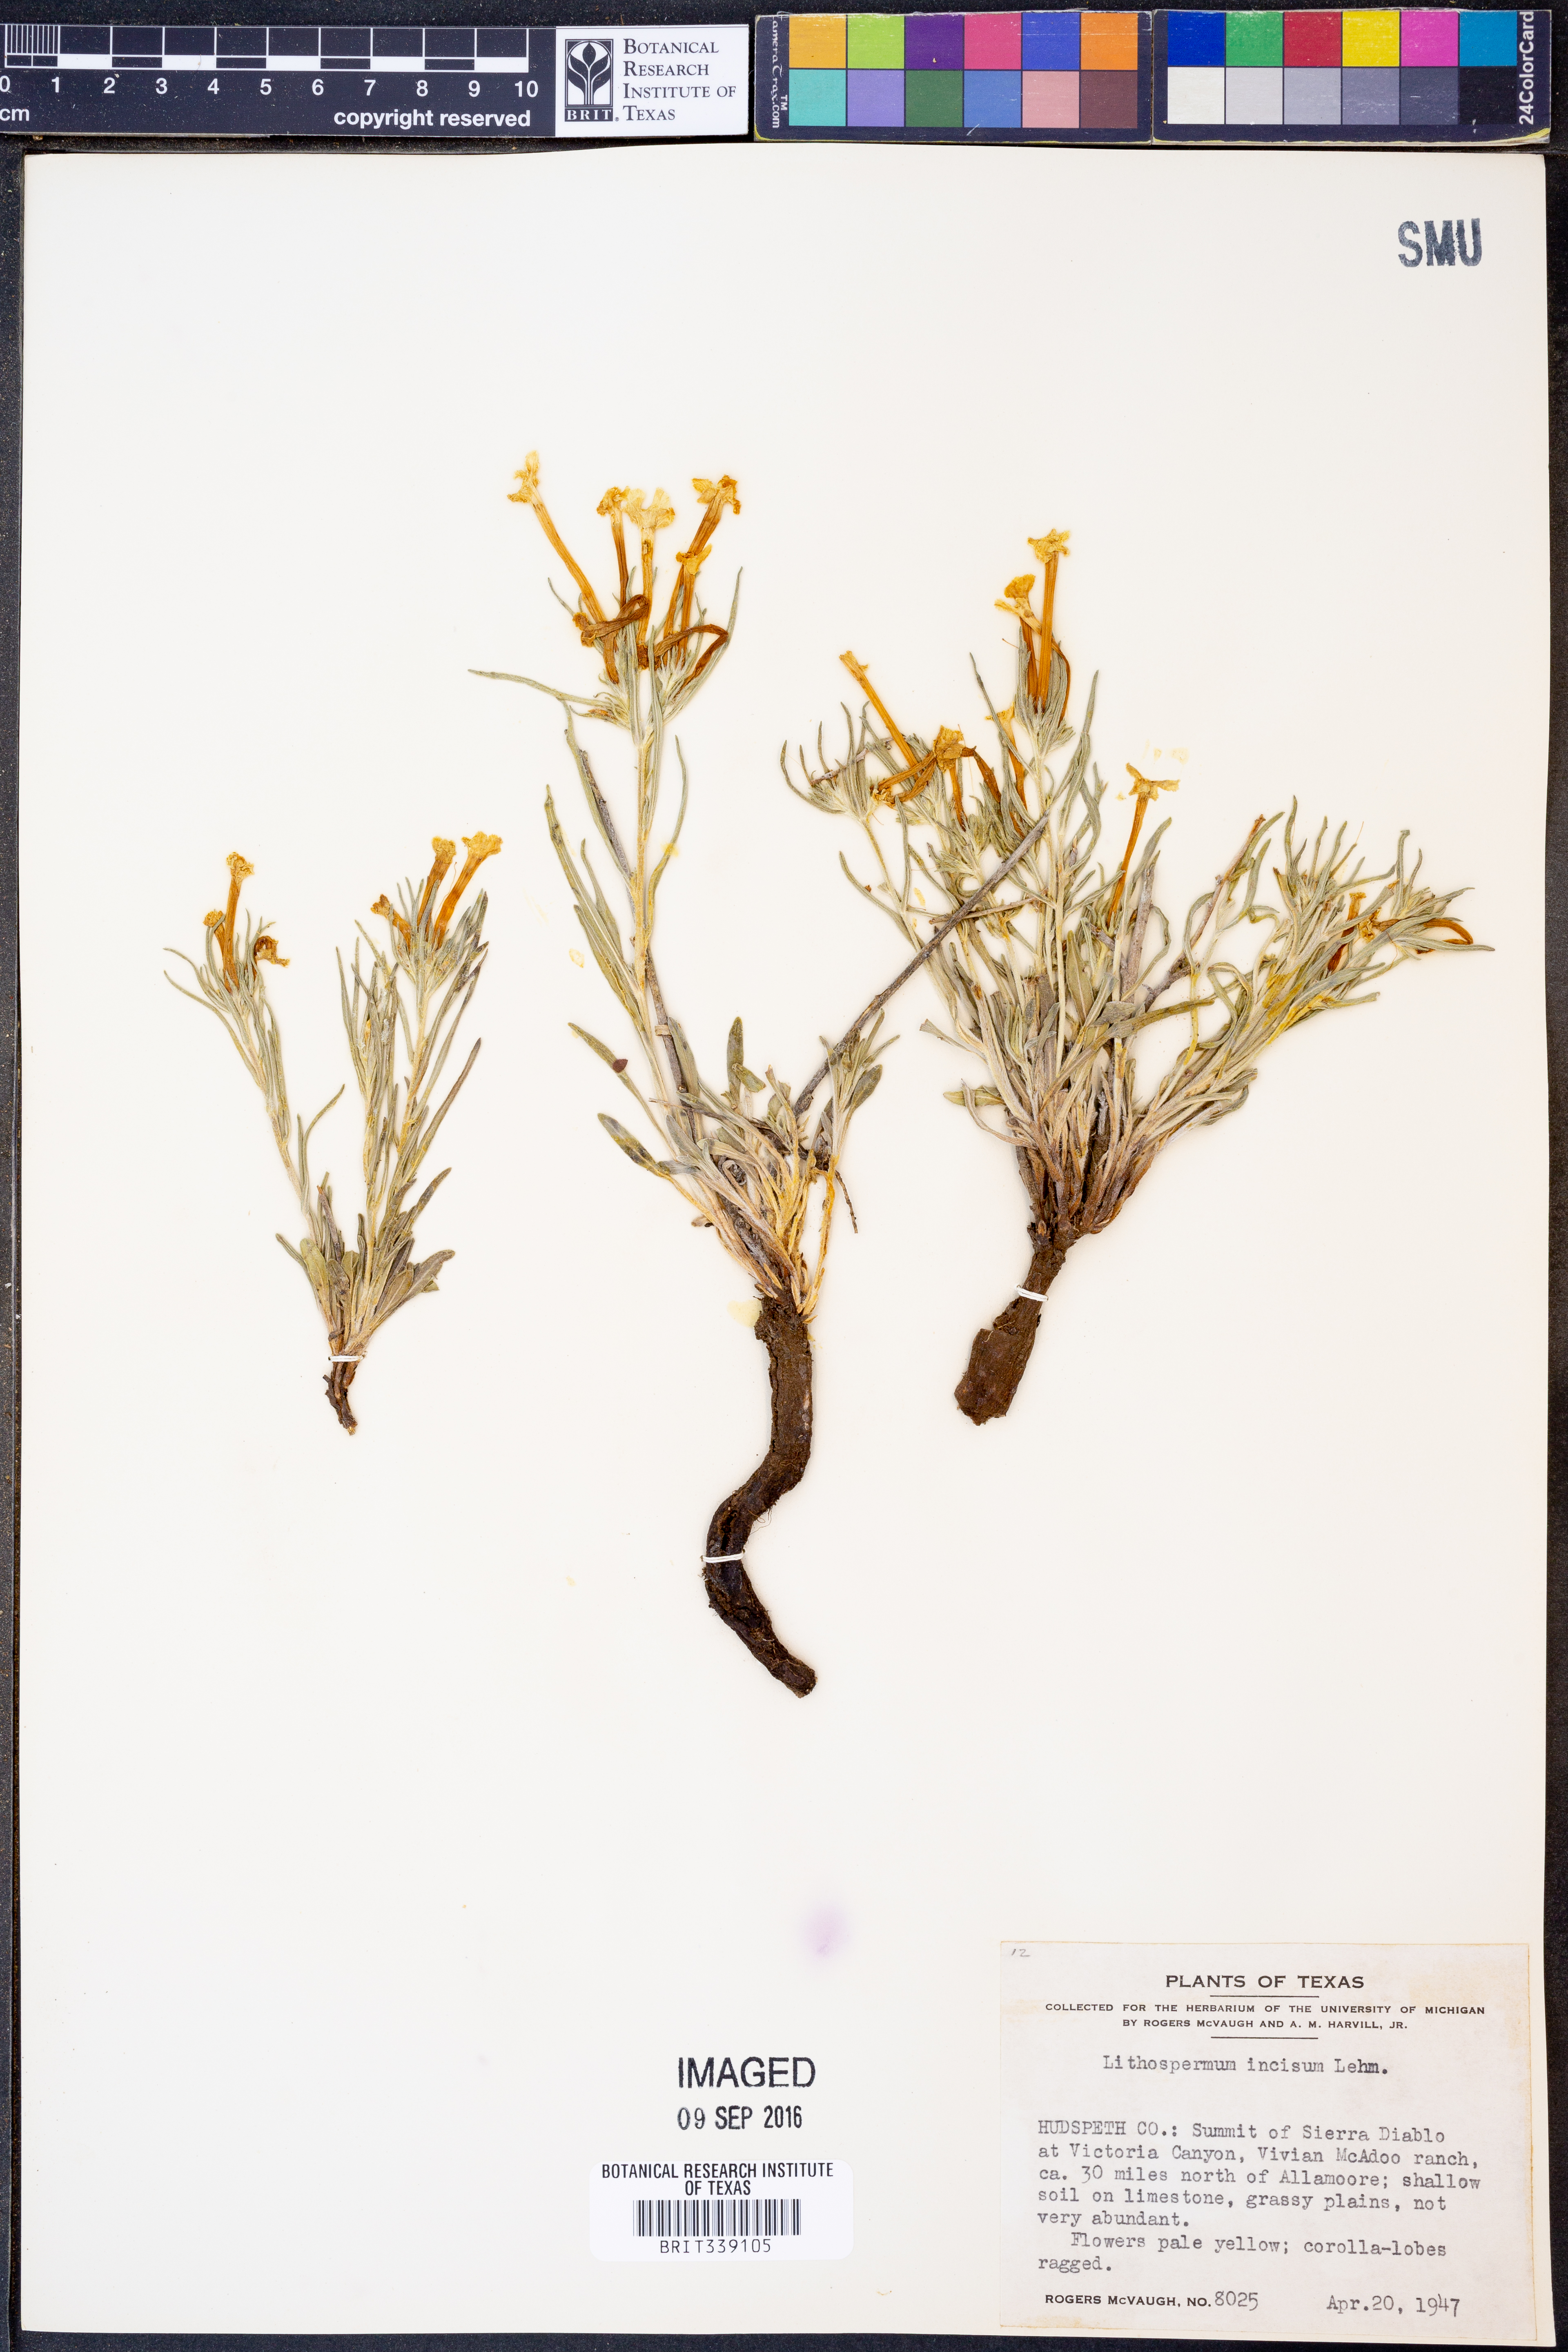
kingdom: Plantae
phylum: Tracheophyta
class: Magnoliopsida
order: Boraginales
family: Boraginaceae
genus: Lithospermum
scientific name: Lithospermum incisum
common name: Fringed gromwell
